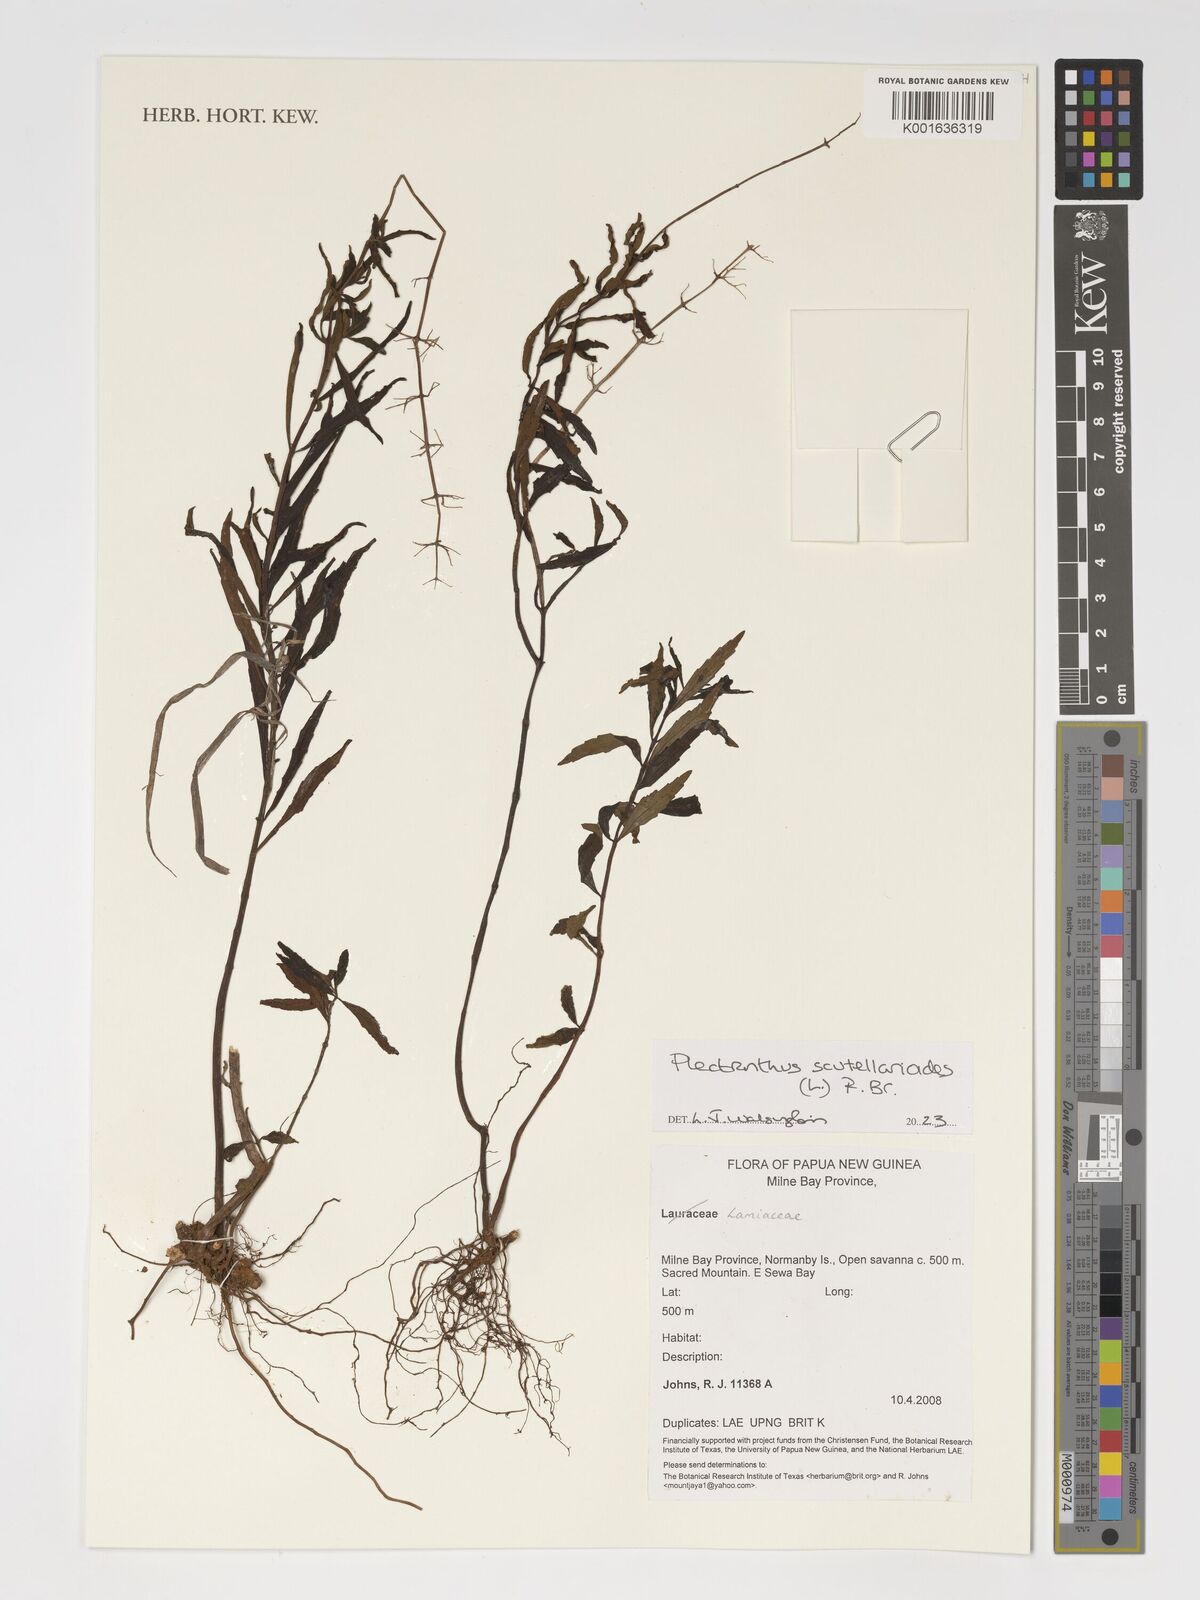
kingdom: Plantae
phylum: Tracheophyta
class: Magnoliopsida
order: Lamiales
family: Lamiaceae
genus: Coleus
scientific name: Coleus scutellarioides
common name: Coleus
